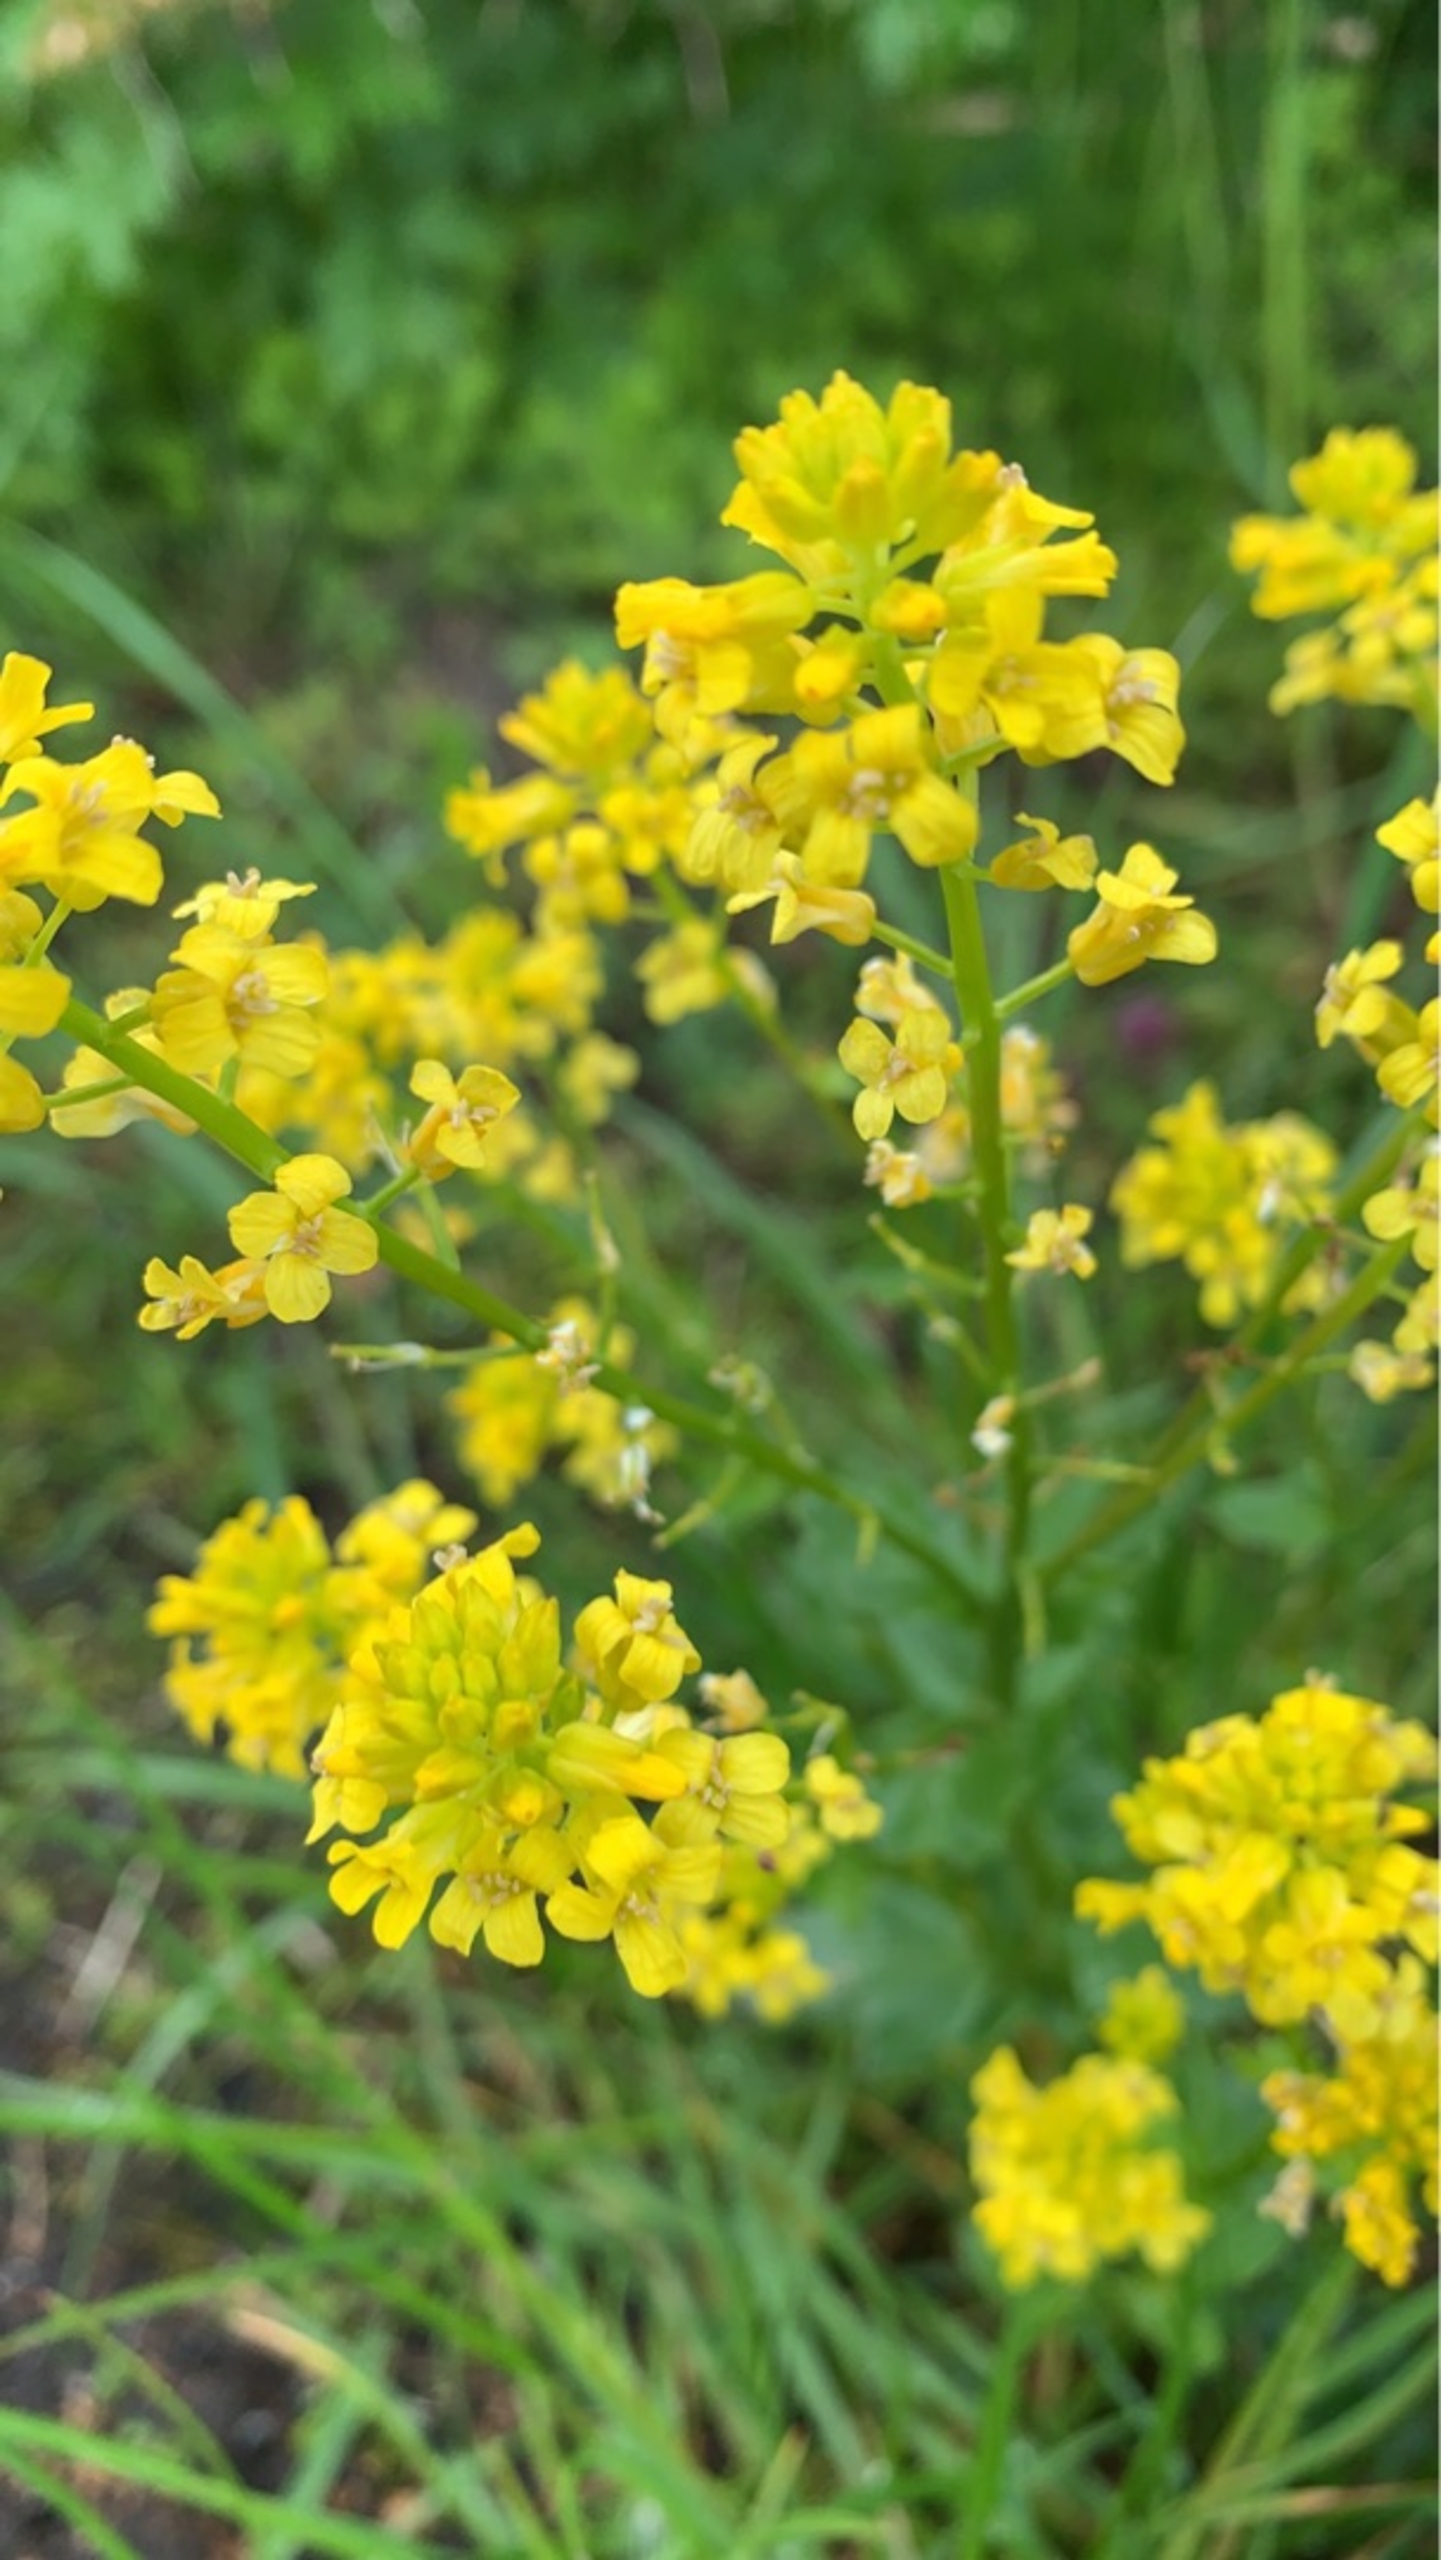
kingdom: Plantae
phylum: Tracheophyta
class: Magnoliopsida
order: Brassicales
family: Brassicaceae
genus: Barbarea
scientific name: Barbarea vulgaris
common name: Almindelig vinterkarse
